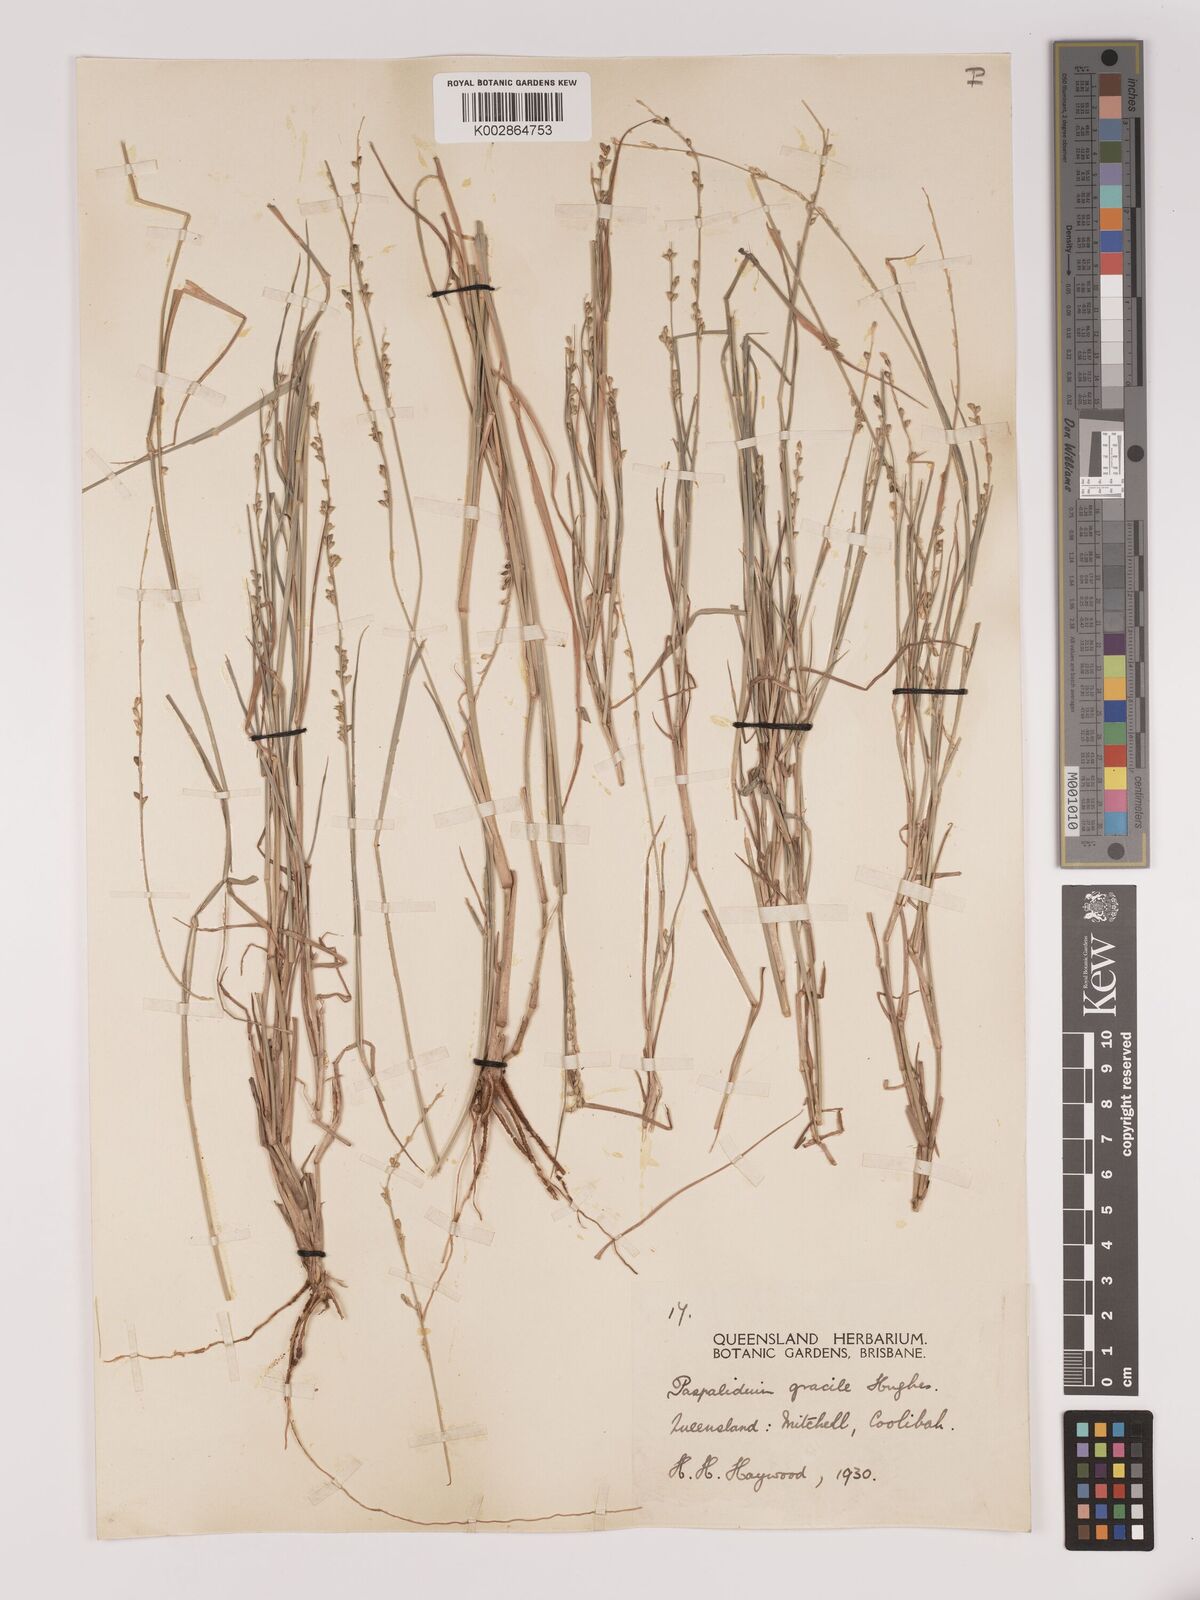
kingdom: Plantae
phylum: Tracheophyta
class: Liliopsida
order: Poales
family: Poaceae
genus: Setaria
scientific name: Setaria brownii
